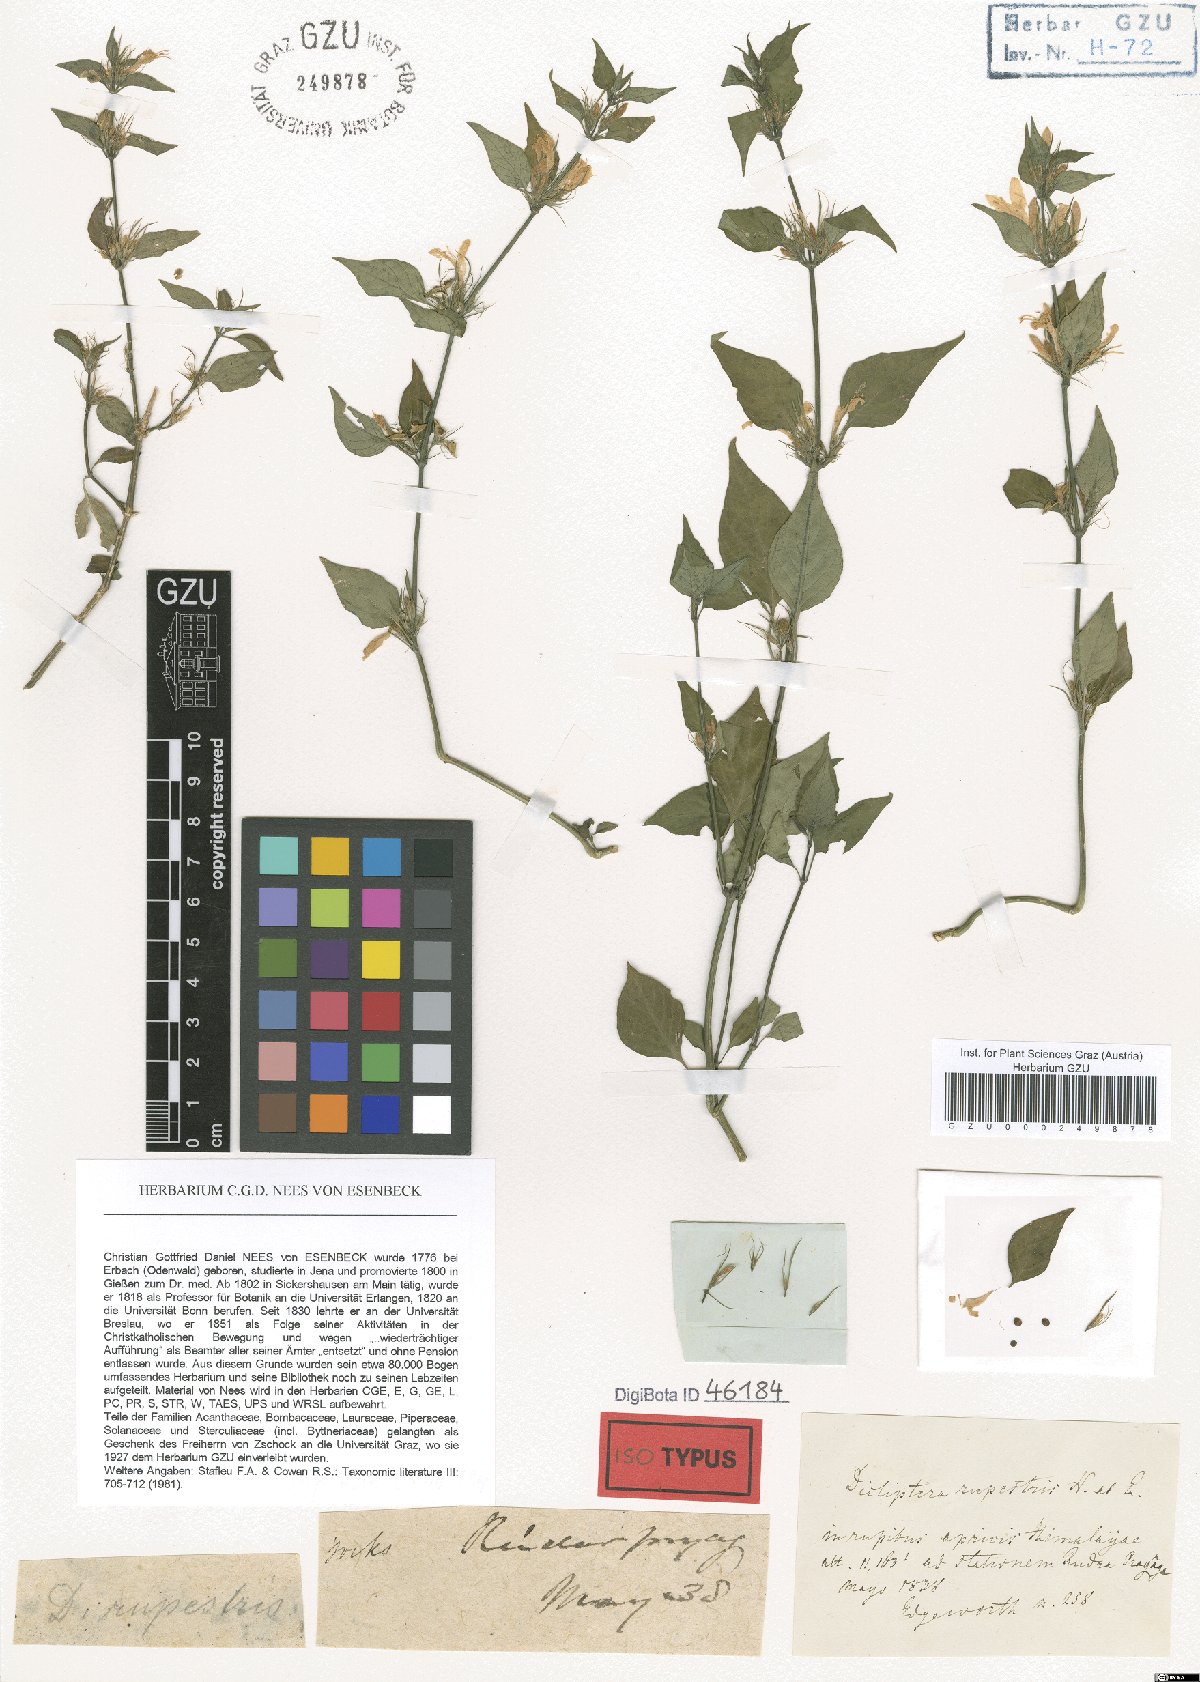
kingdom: Plantae
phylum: Tracheophyta
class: Magnoliopsida
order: Lamiales
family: Acanthaceae
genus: Dicliptera
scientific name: Dicliptera bupleuroides
